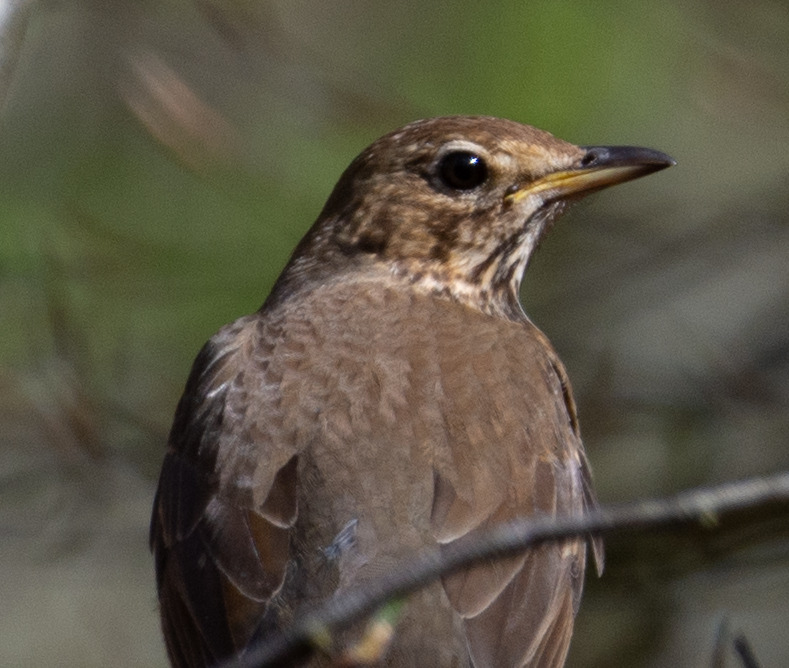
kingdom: Animalia
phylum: Chordata
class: Aves
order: Passeriformes
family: Turdidae
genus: Turdus
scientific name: Turdus philomelos
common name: Sangdrossel
